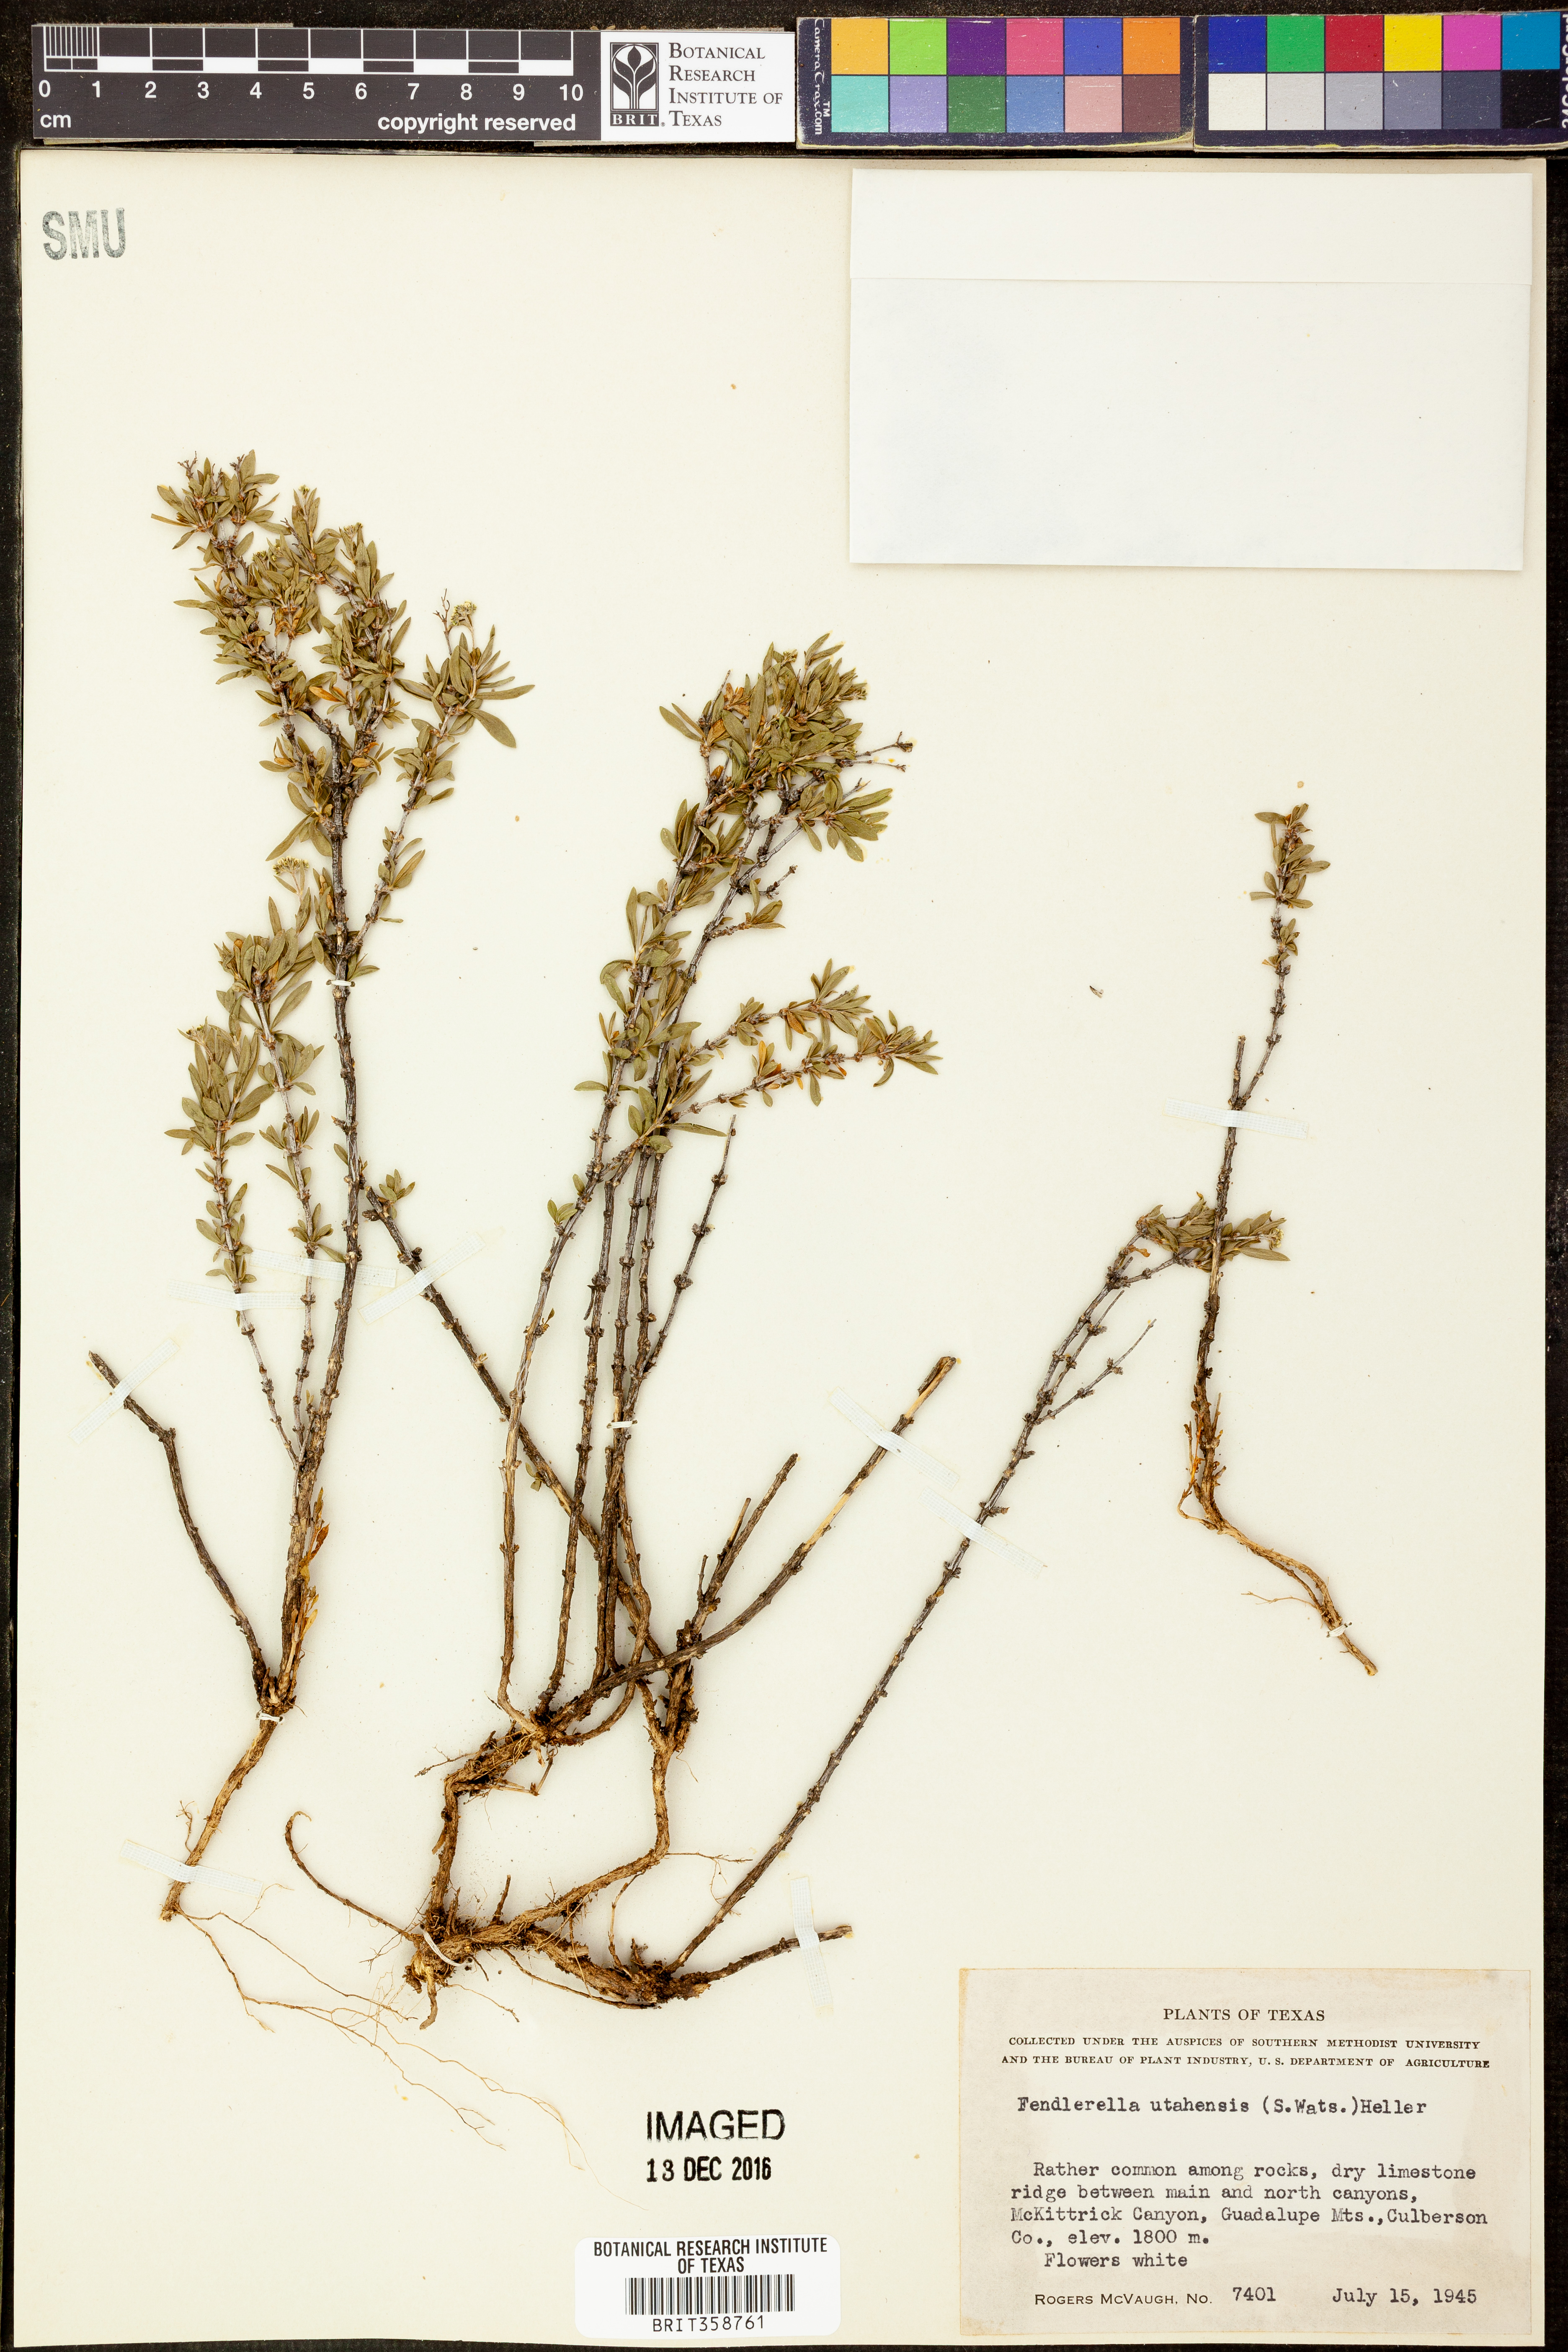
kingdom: Plantae
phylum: Tracheophyta
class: Magnoliopsida
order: Cornales
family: Hydrangeaceae
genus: Fendlerella
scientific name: Fendlerella utahensis
